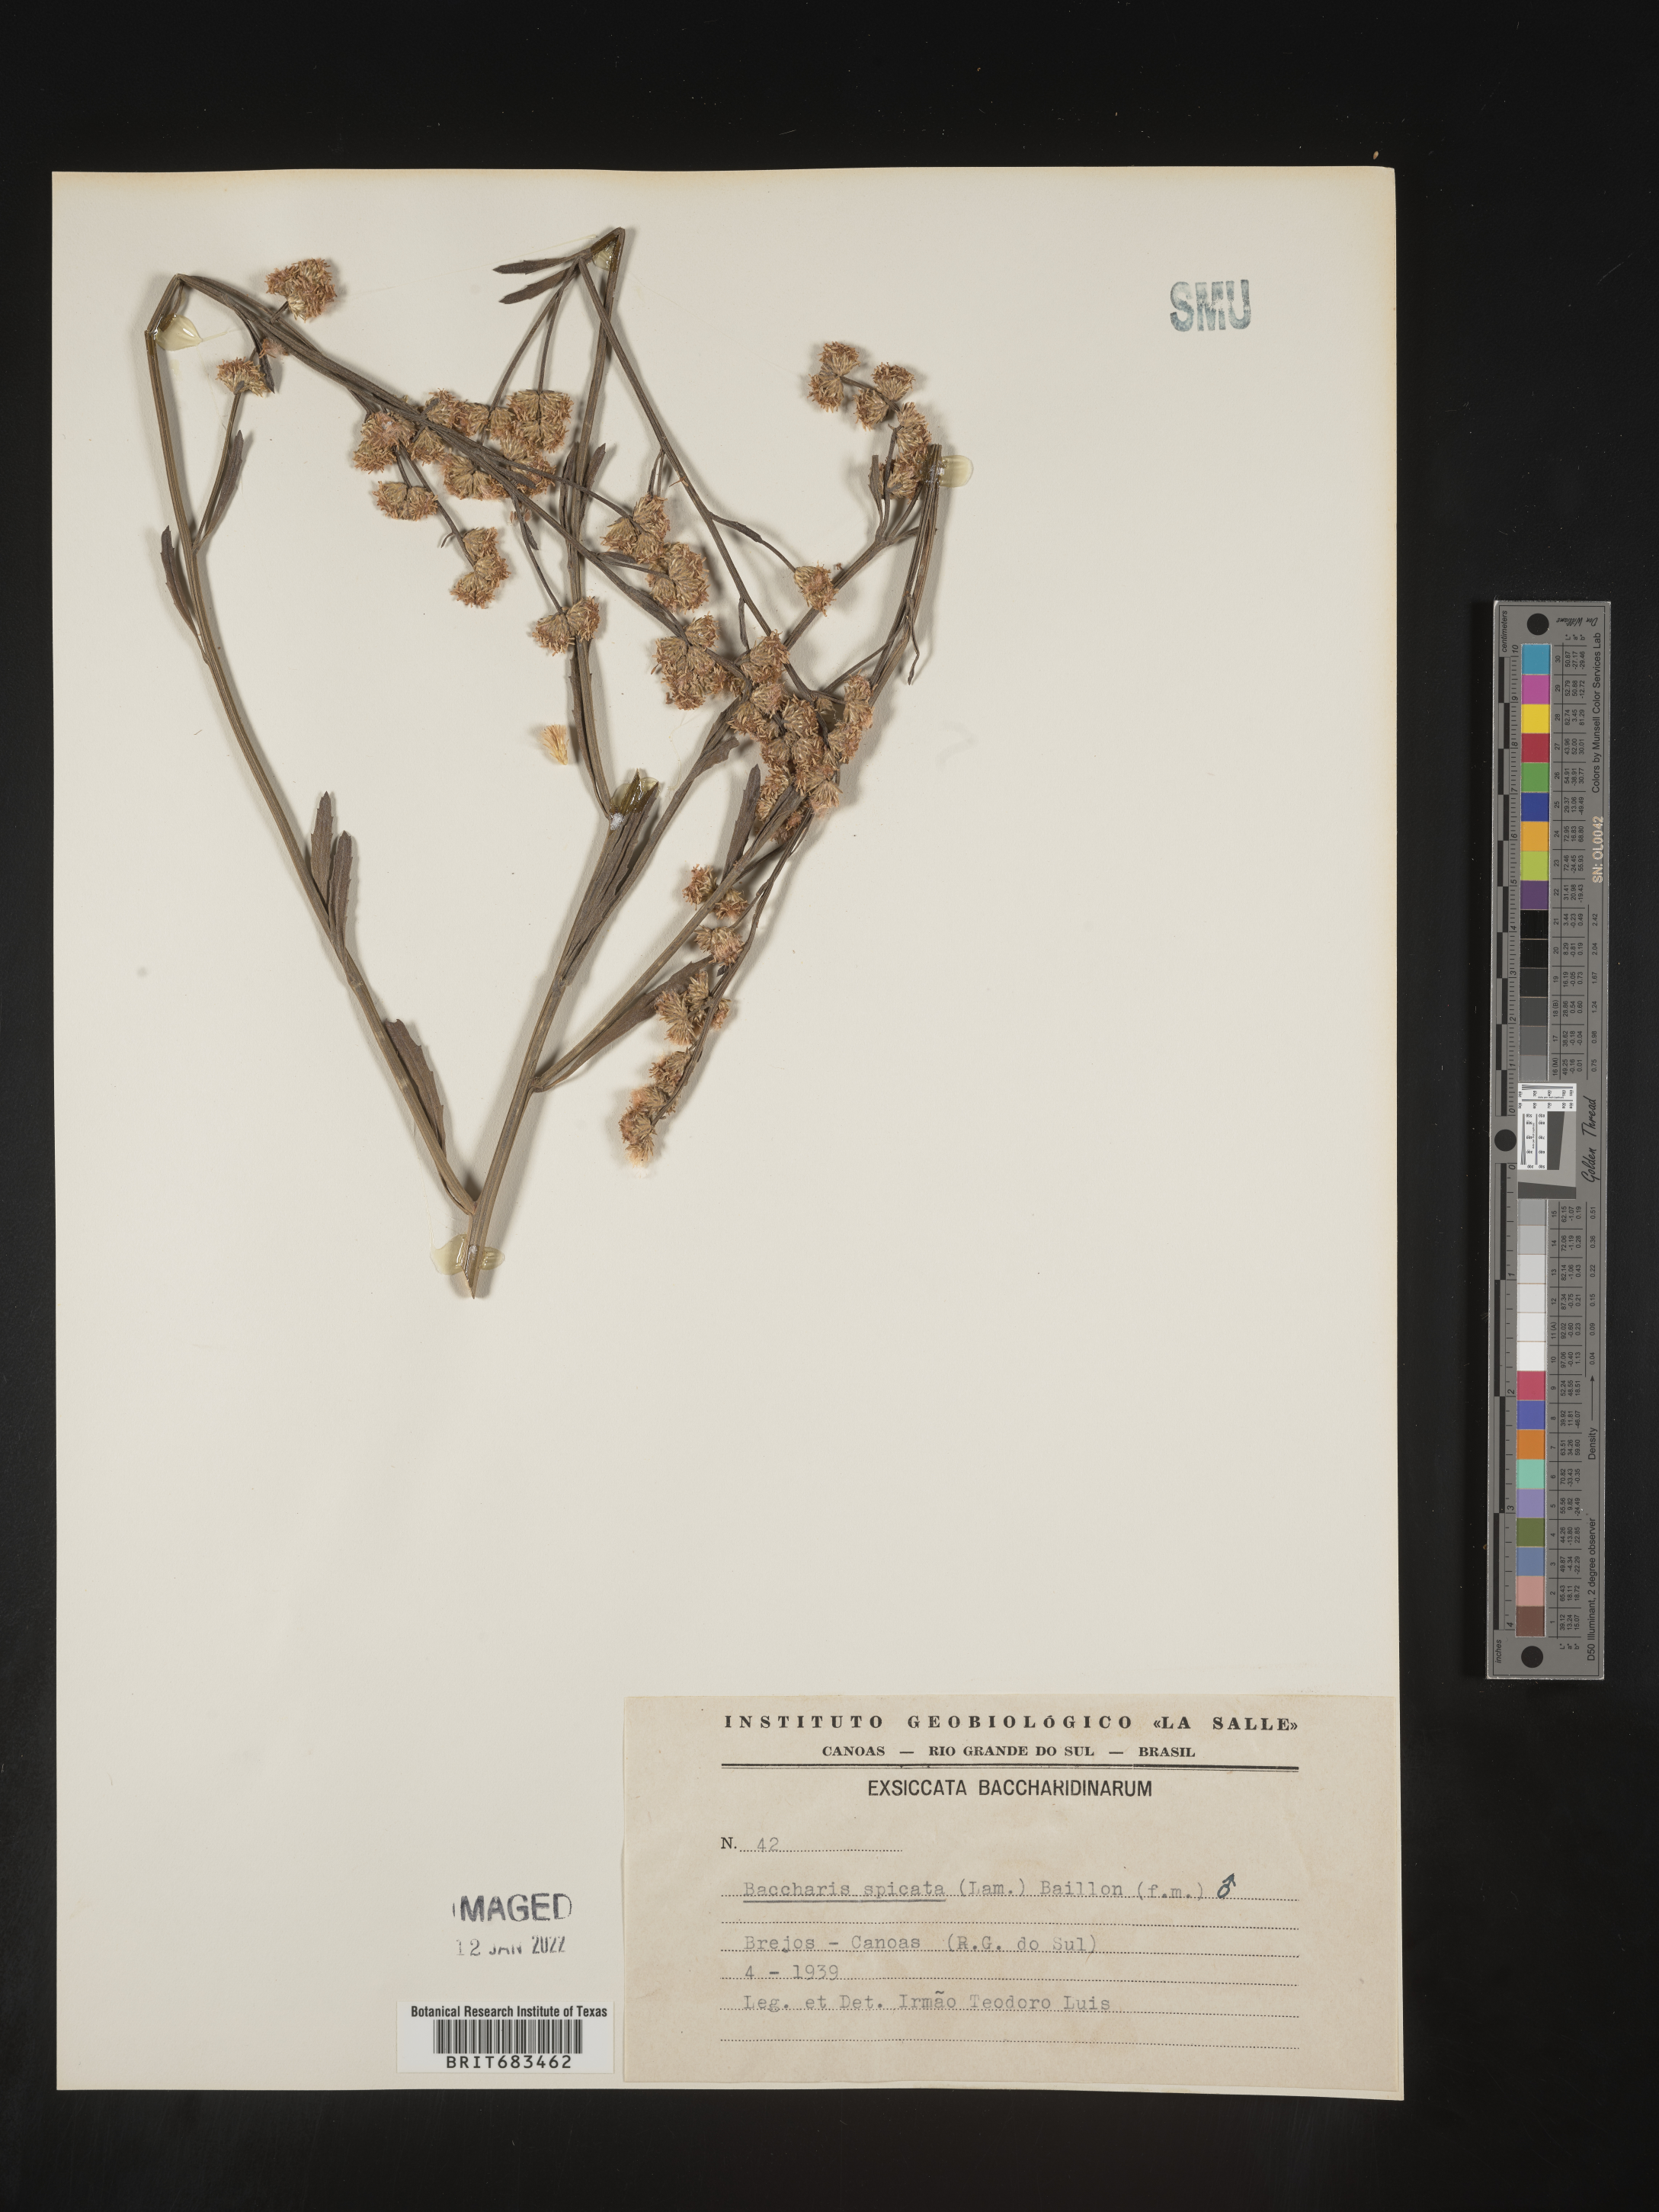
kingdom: Plantae
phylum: Tracheophyta
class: Magnoliopsida
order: Asterales
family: Asteraceae
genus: Baccharis
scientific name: Baccharis
